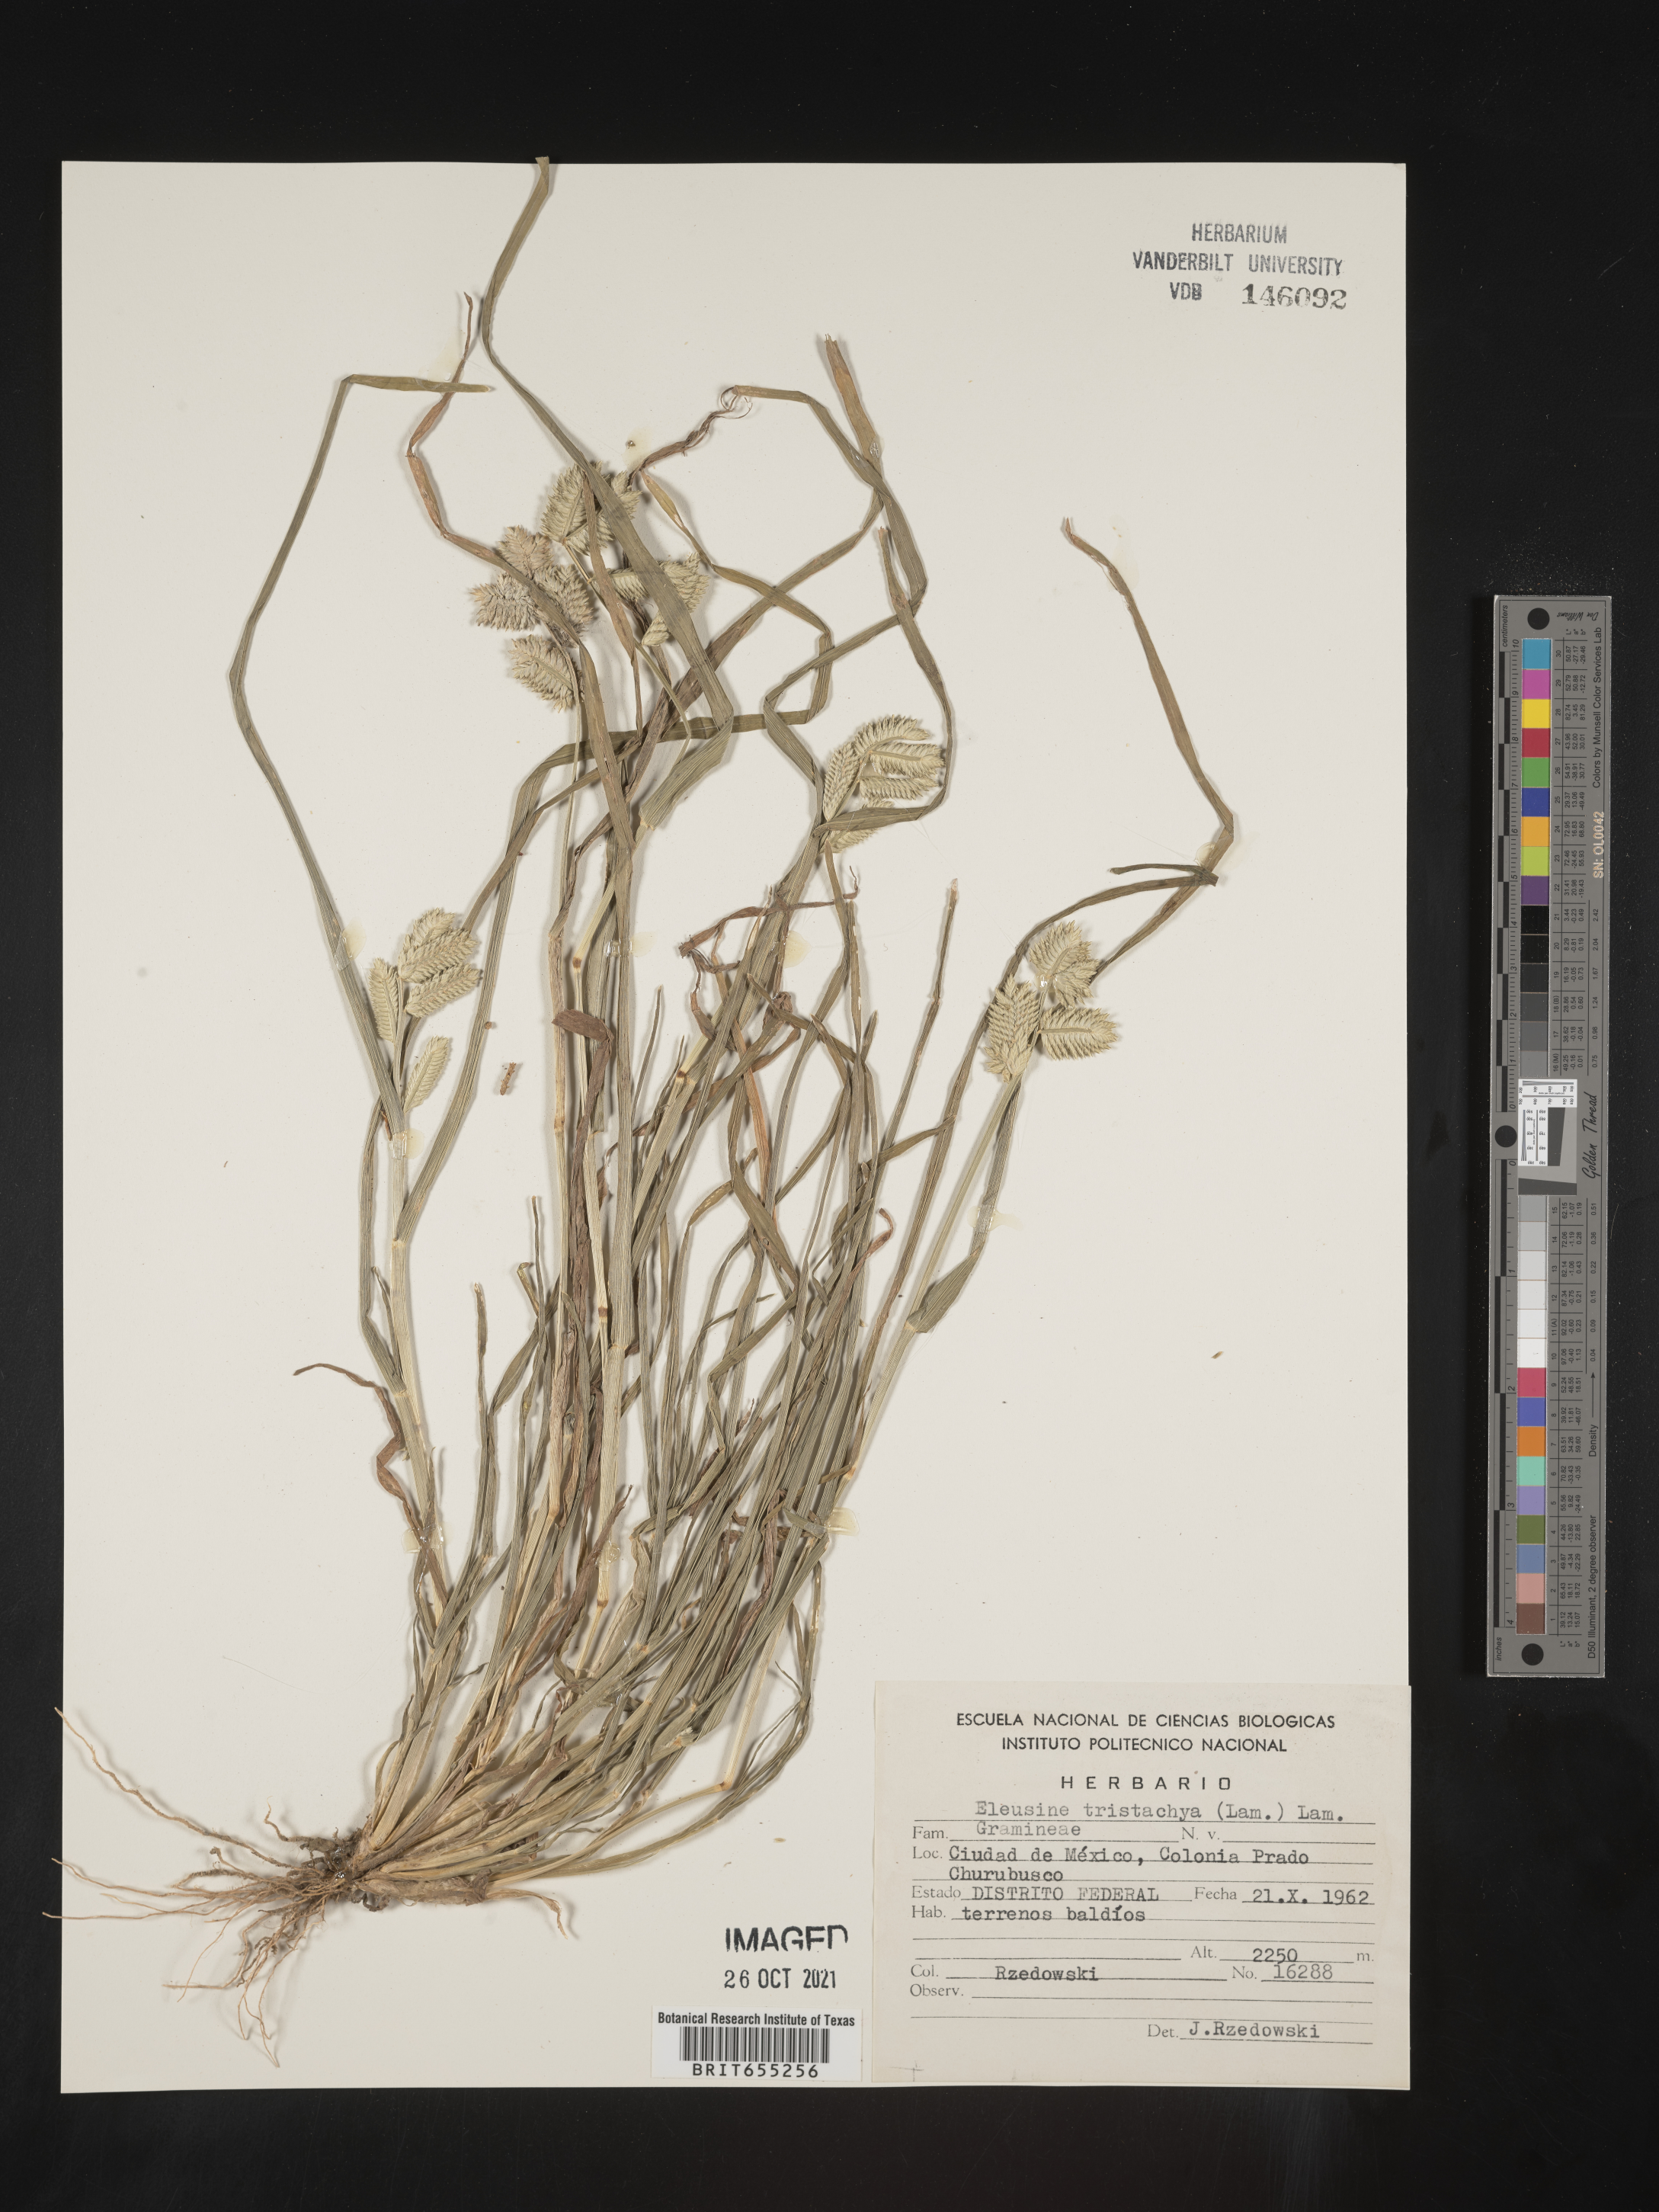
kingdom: Plantae
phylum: Tracheophyta
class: Liliopsida
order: Poales
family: Poaceae
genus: Eleusine
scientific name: Eleusine
